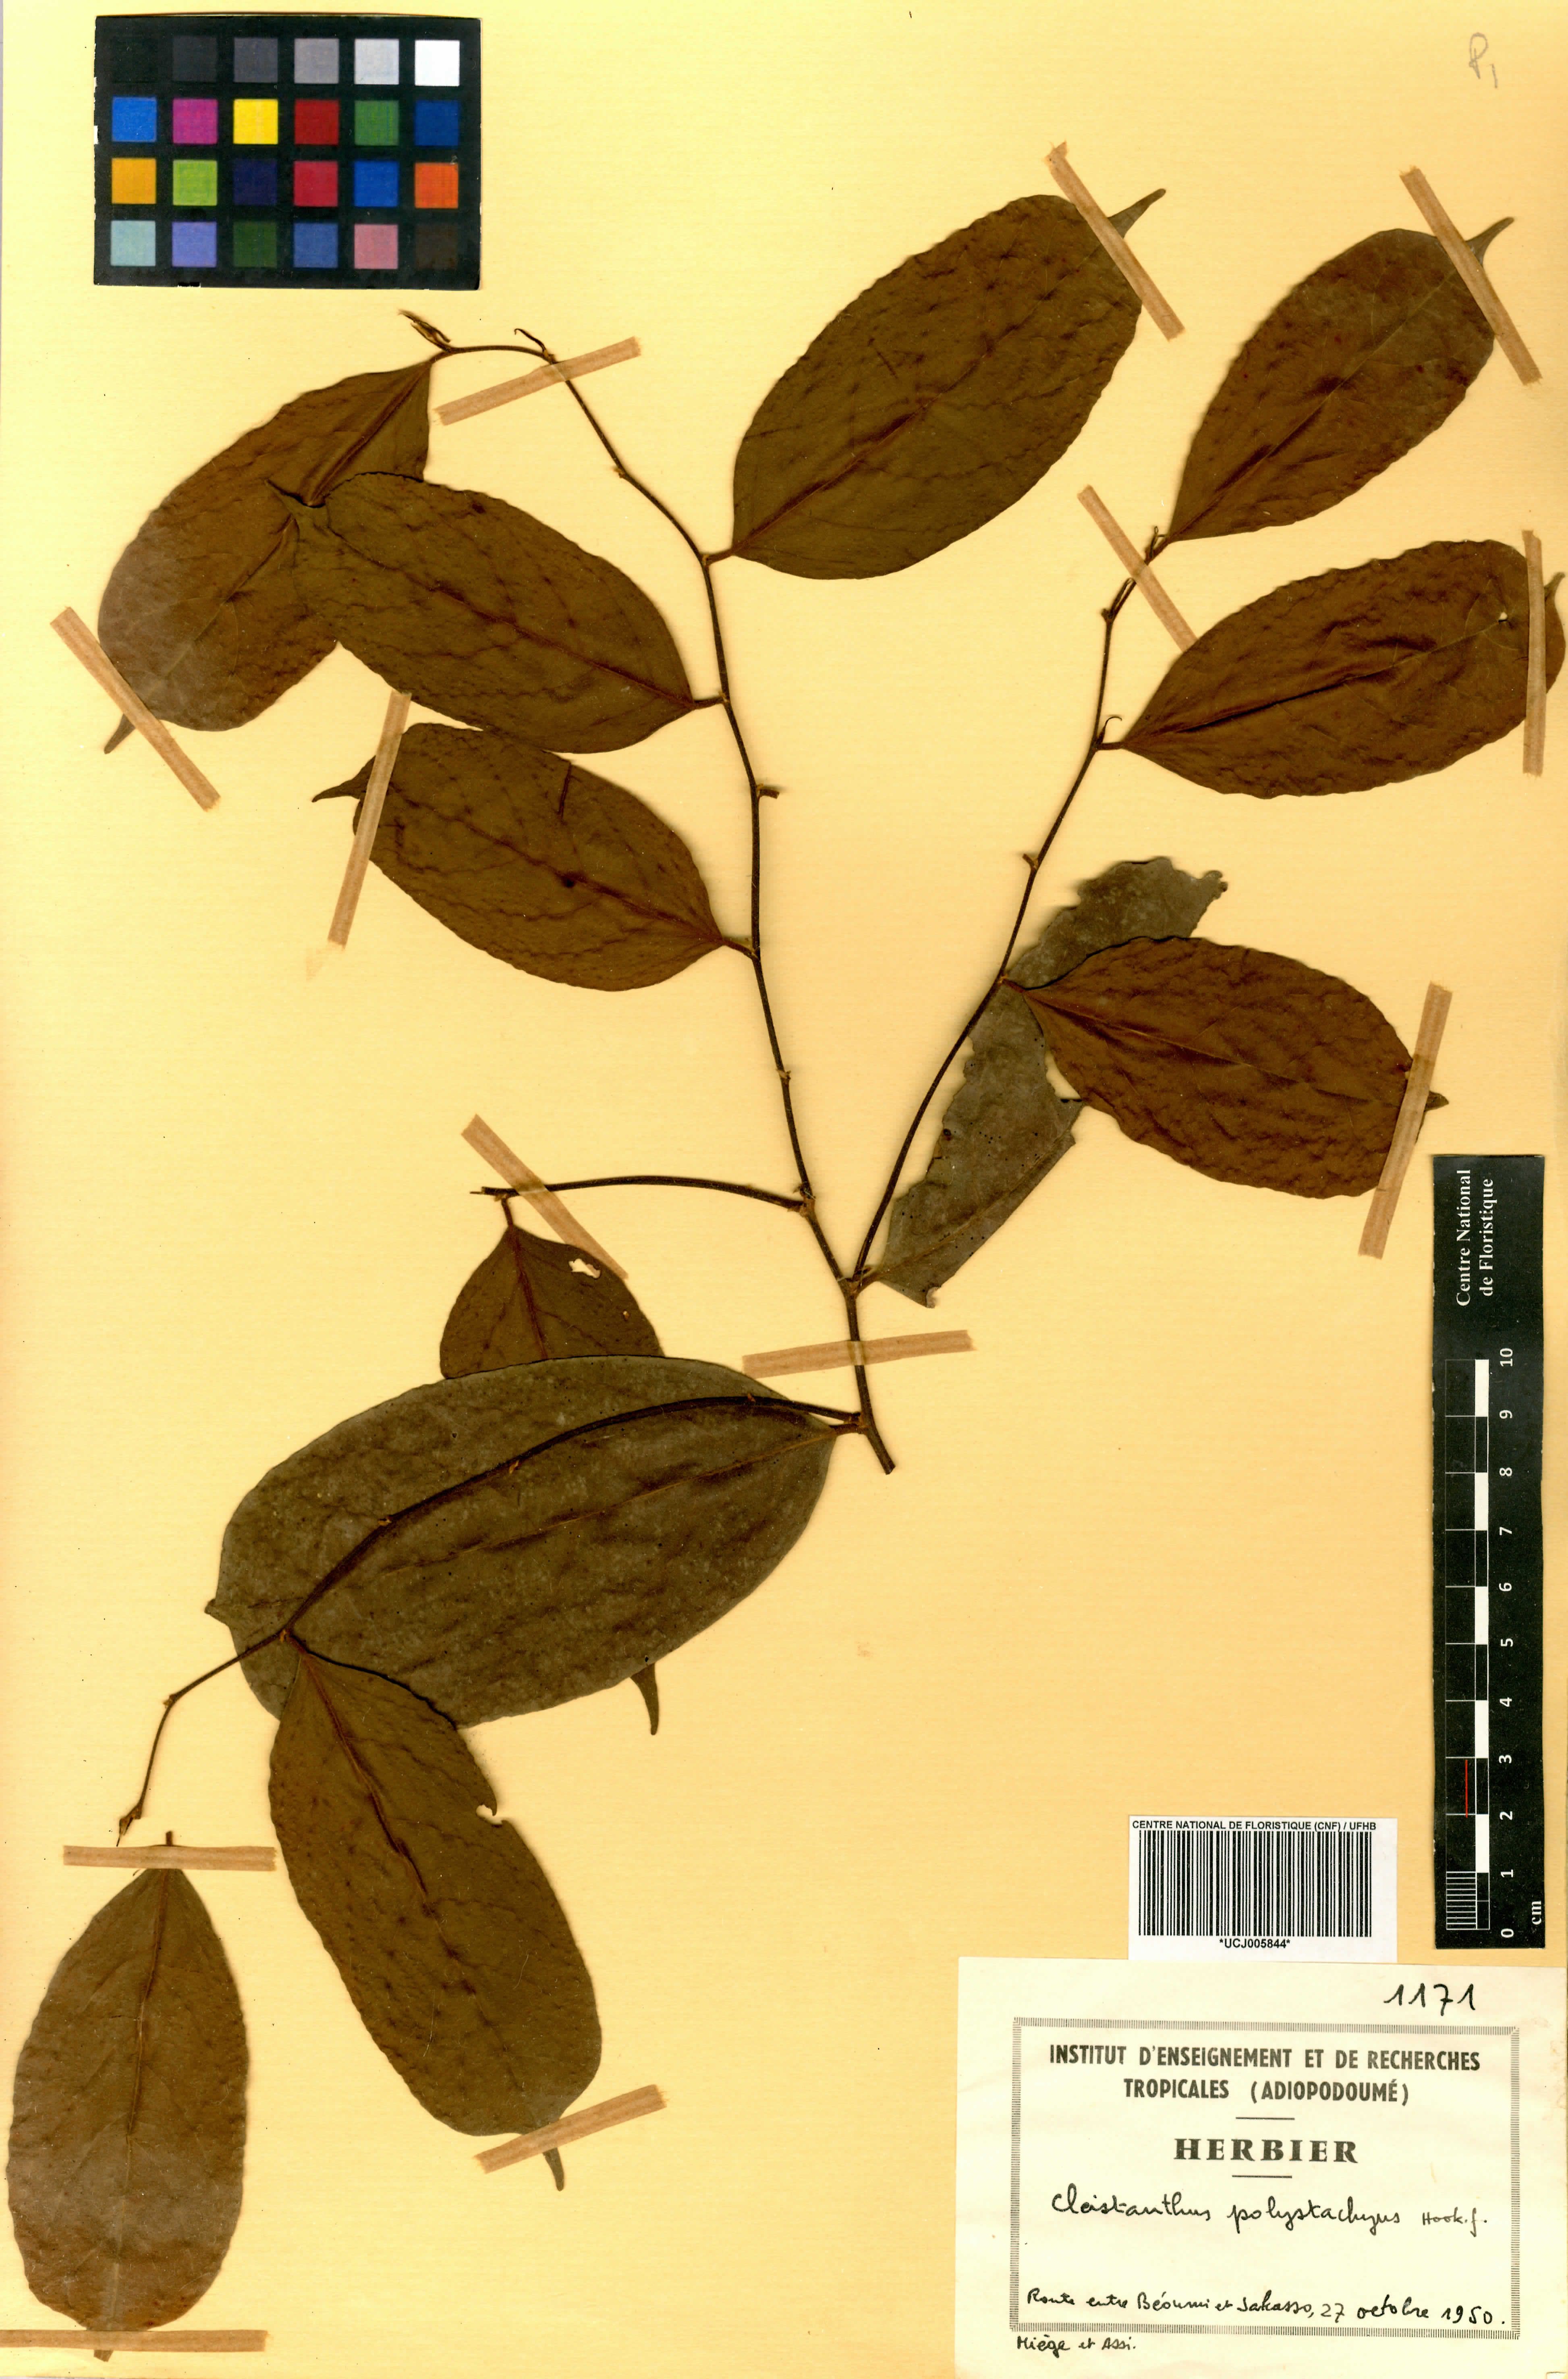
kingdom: Plantae
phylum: Tracheophyta
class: Magnoliopsida
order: Malpighiales
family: Phyllanthaceae
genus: Cleistanthus
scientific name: Cleistanthus polystachyus
